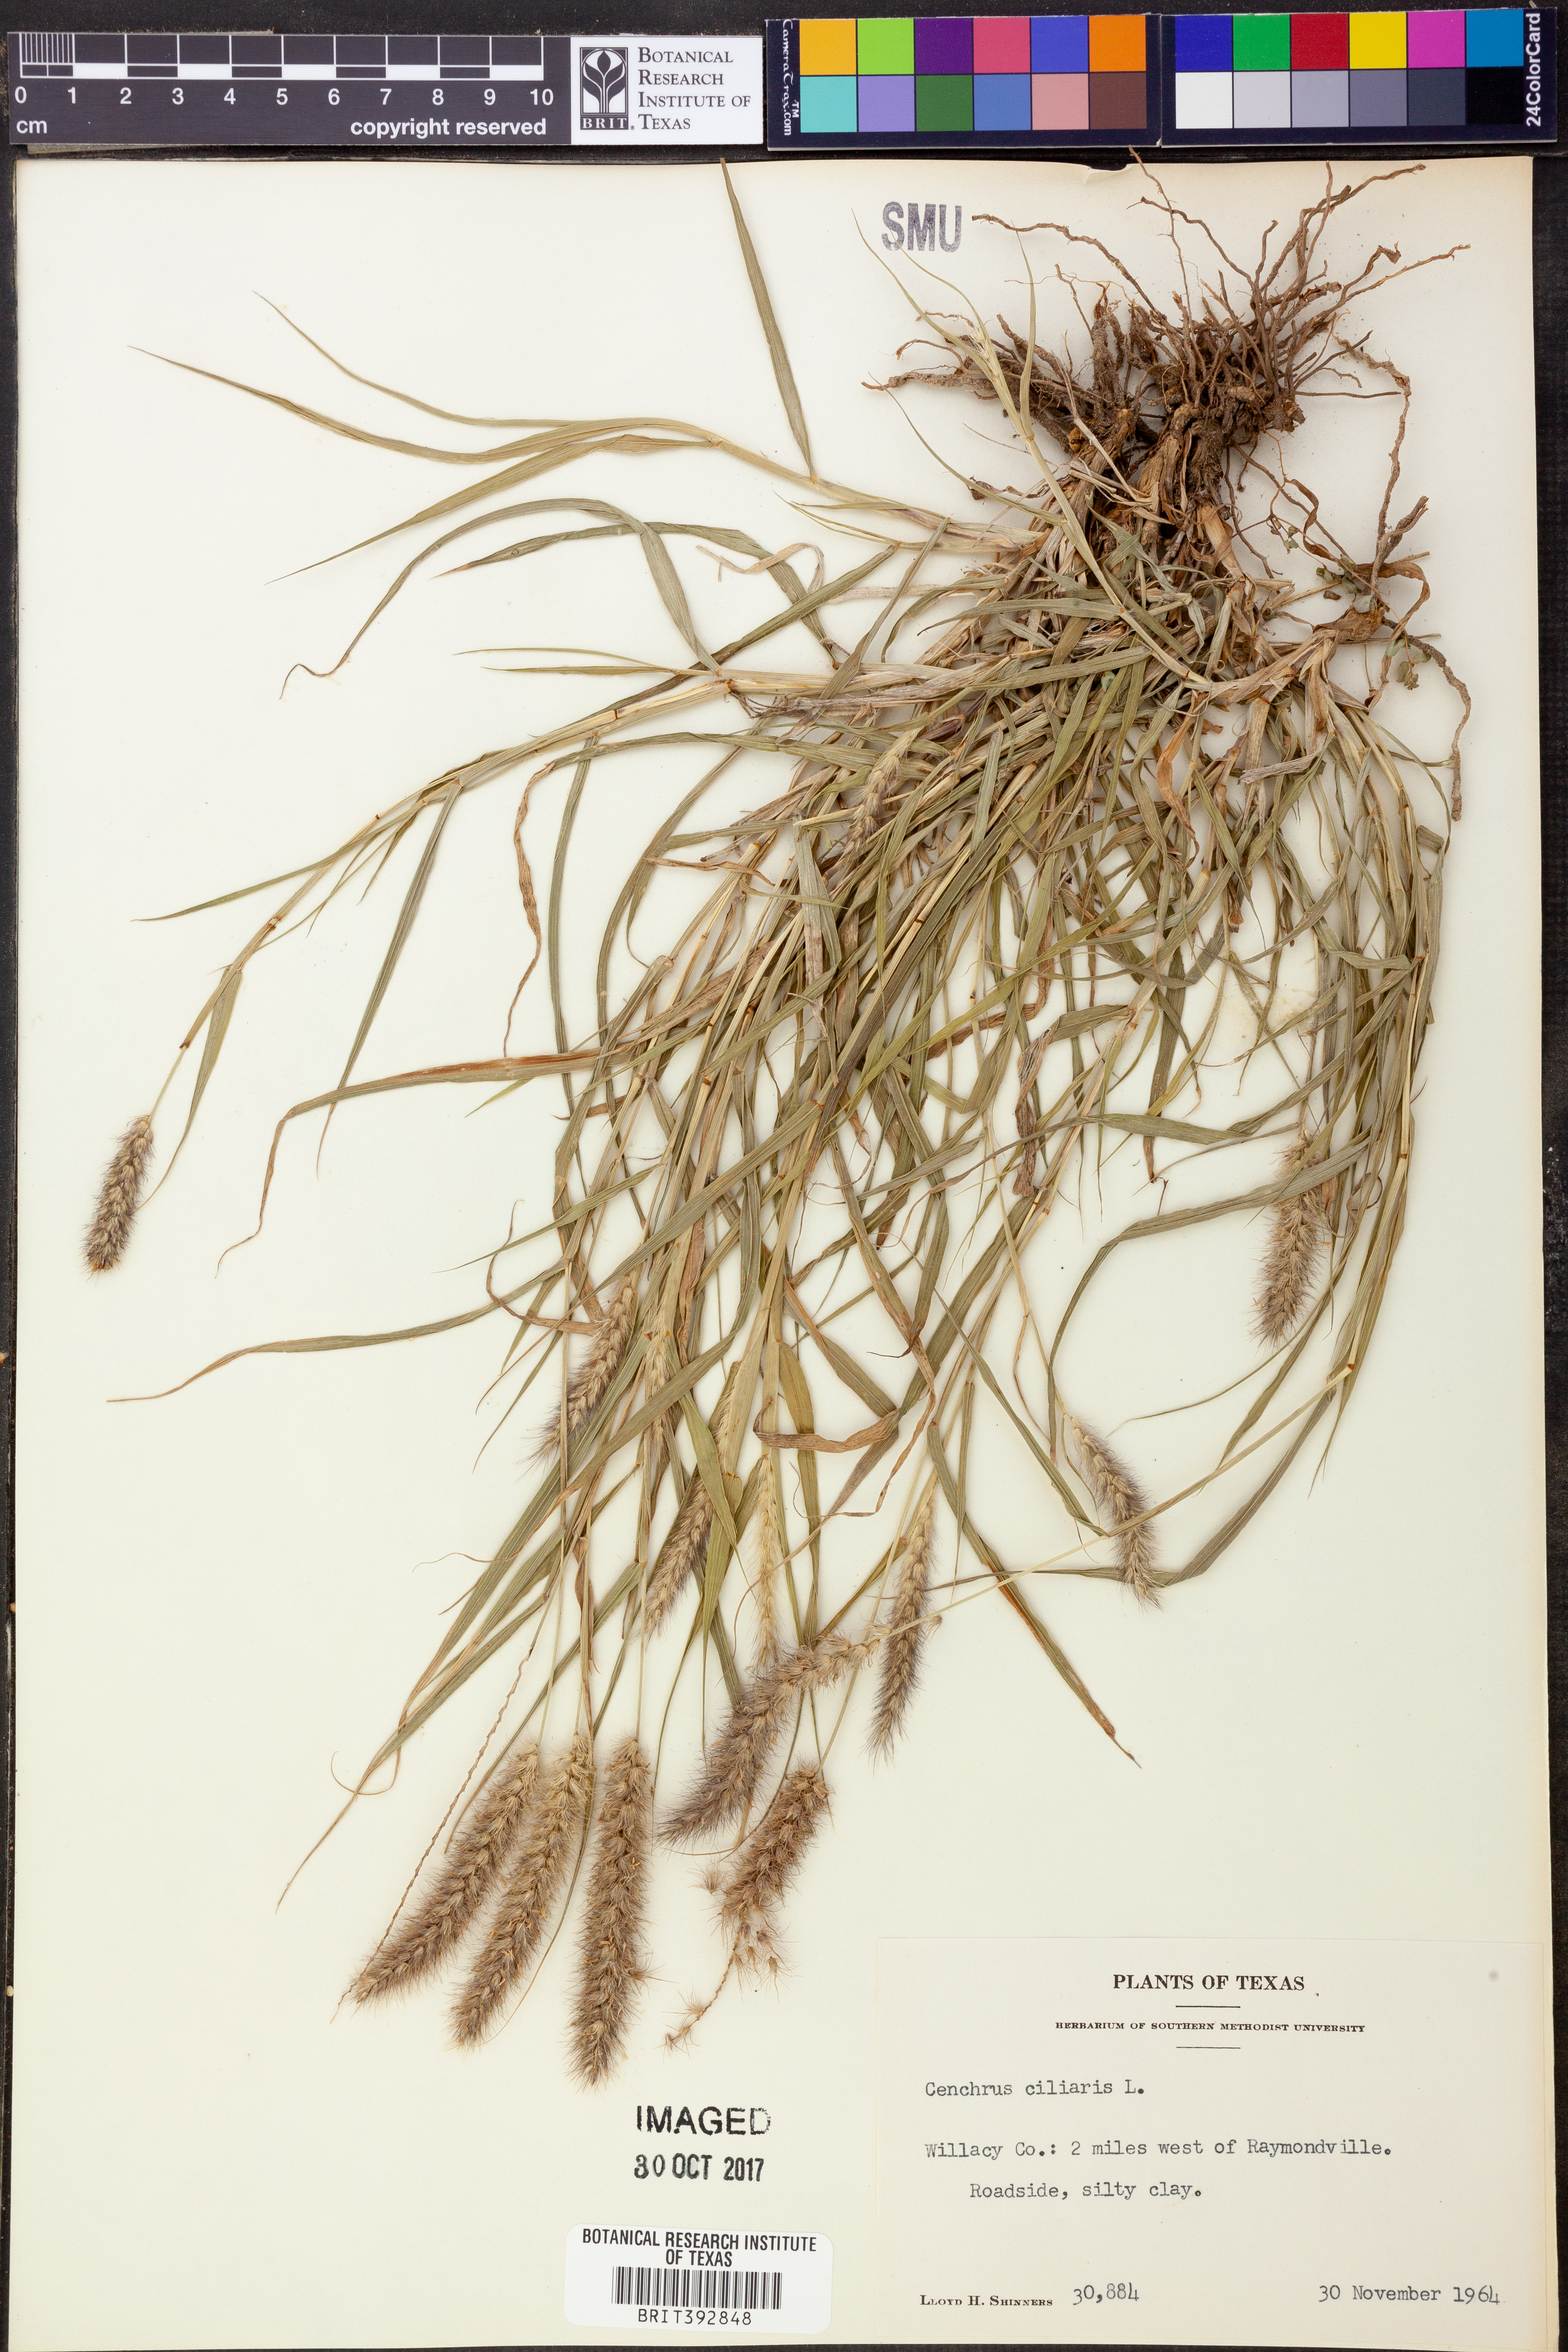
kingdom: Plantae
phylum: Tracheophyta
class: Liliopsida
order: Poales
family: Poaceae
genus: Cenchrus
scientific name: Cenchrus ciliaris
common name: Buffelgrass
